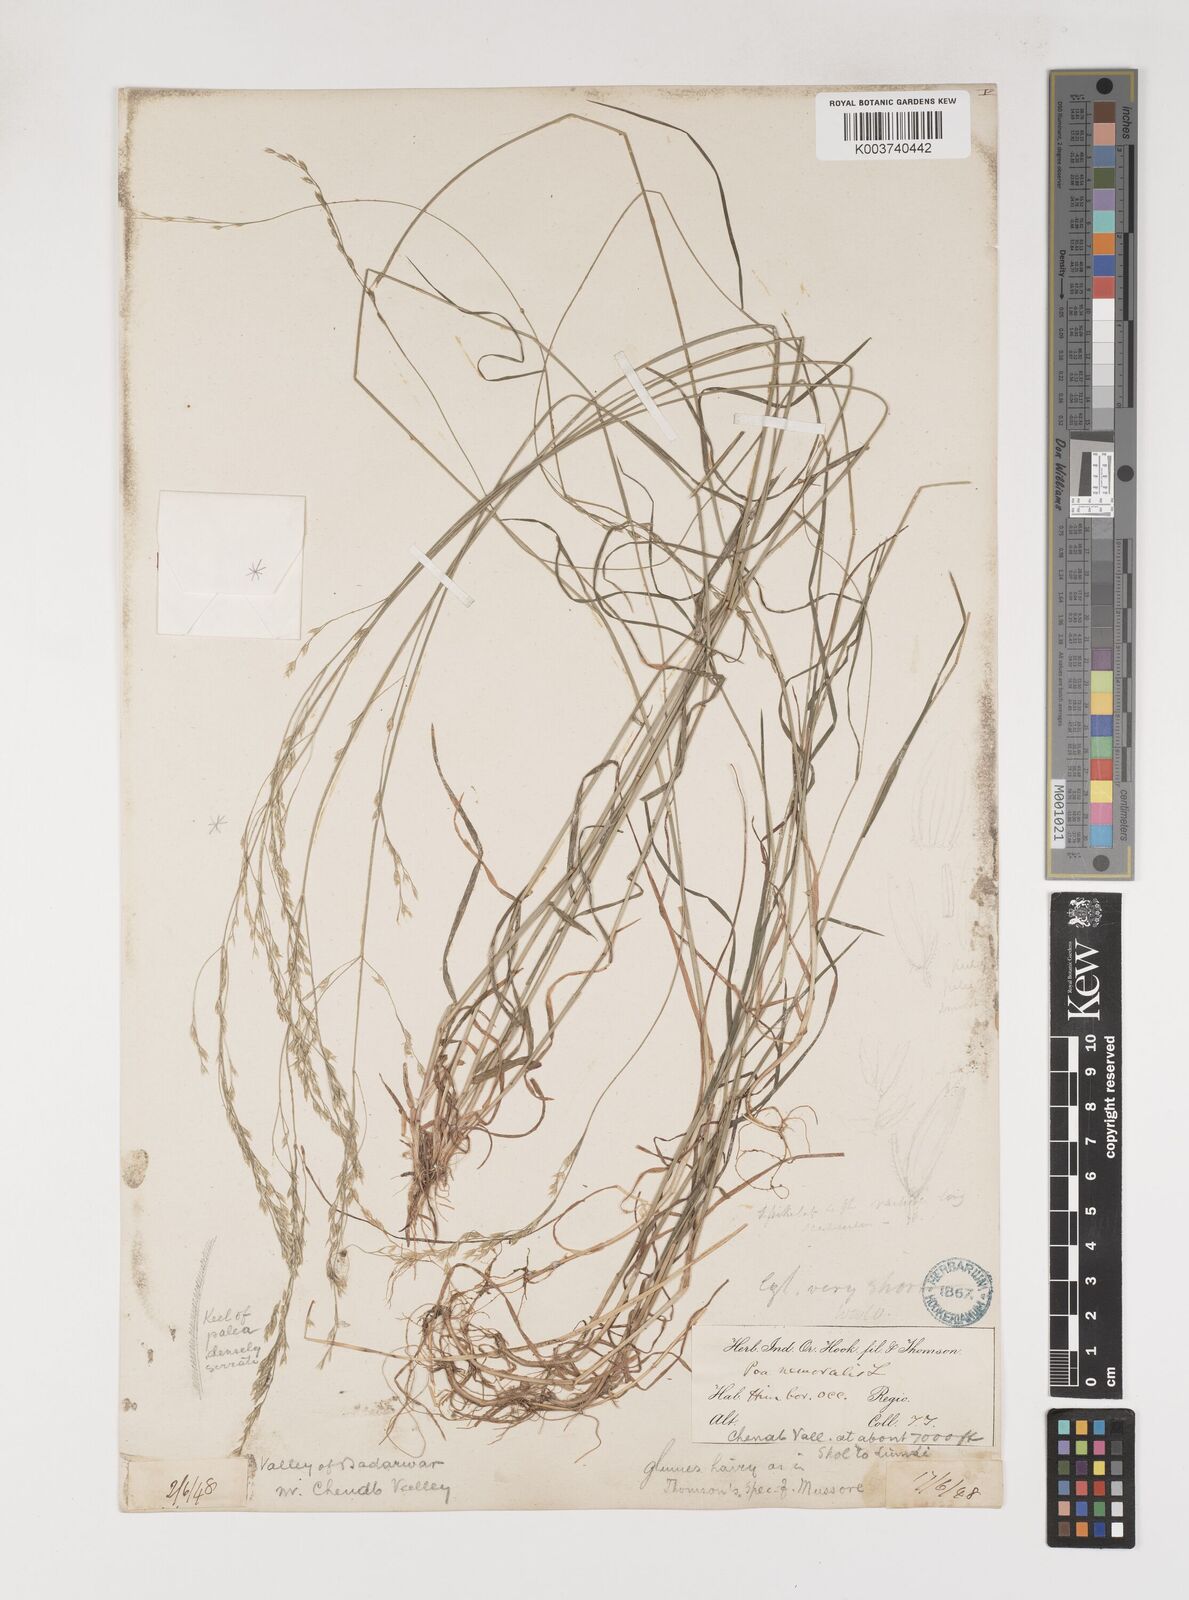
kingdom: Plantae
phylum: Tracheophyta
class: Liliopsida
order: Poales
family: Poaceae
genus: Poa
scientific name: Poa nemoralis
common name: Wood bluegrass
